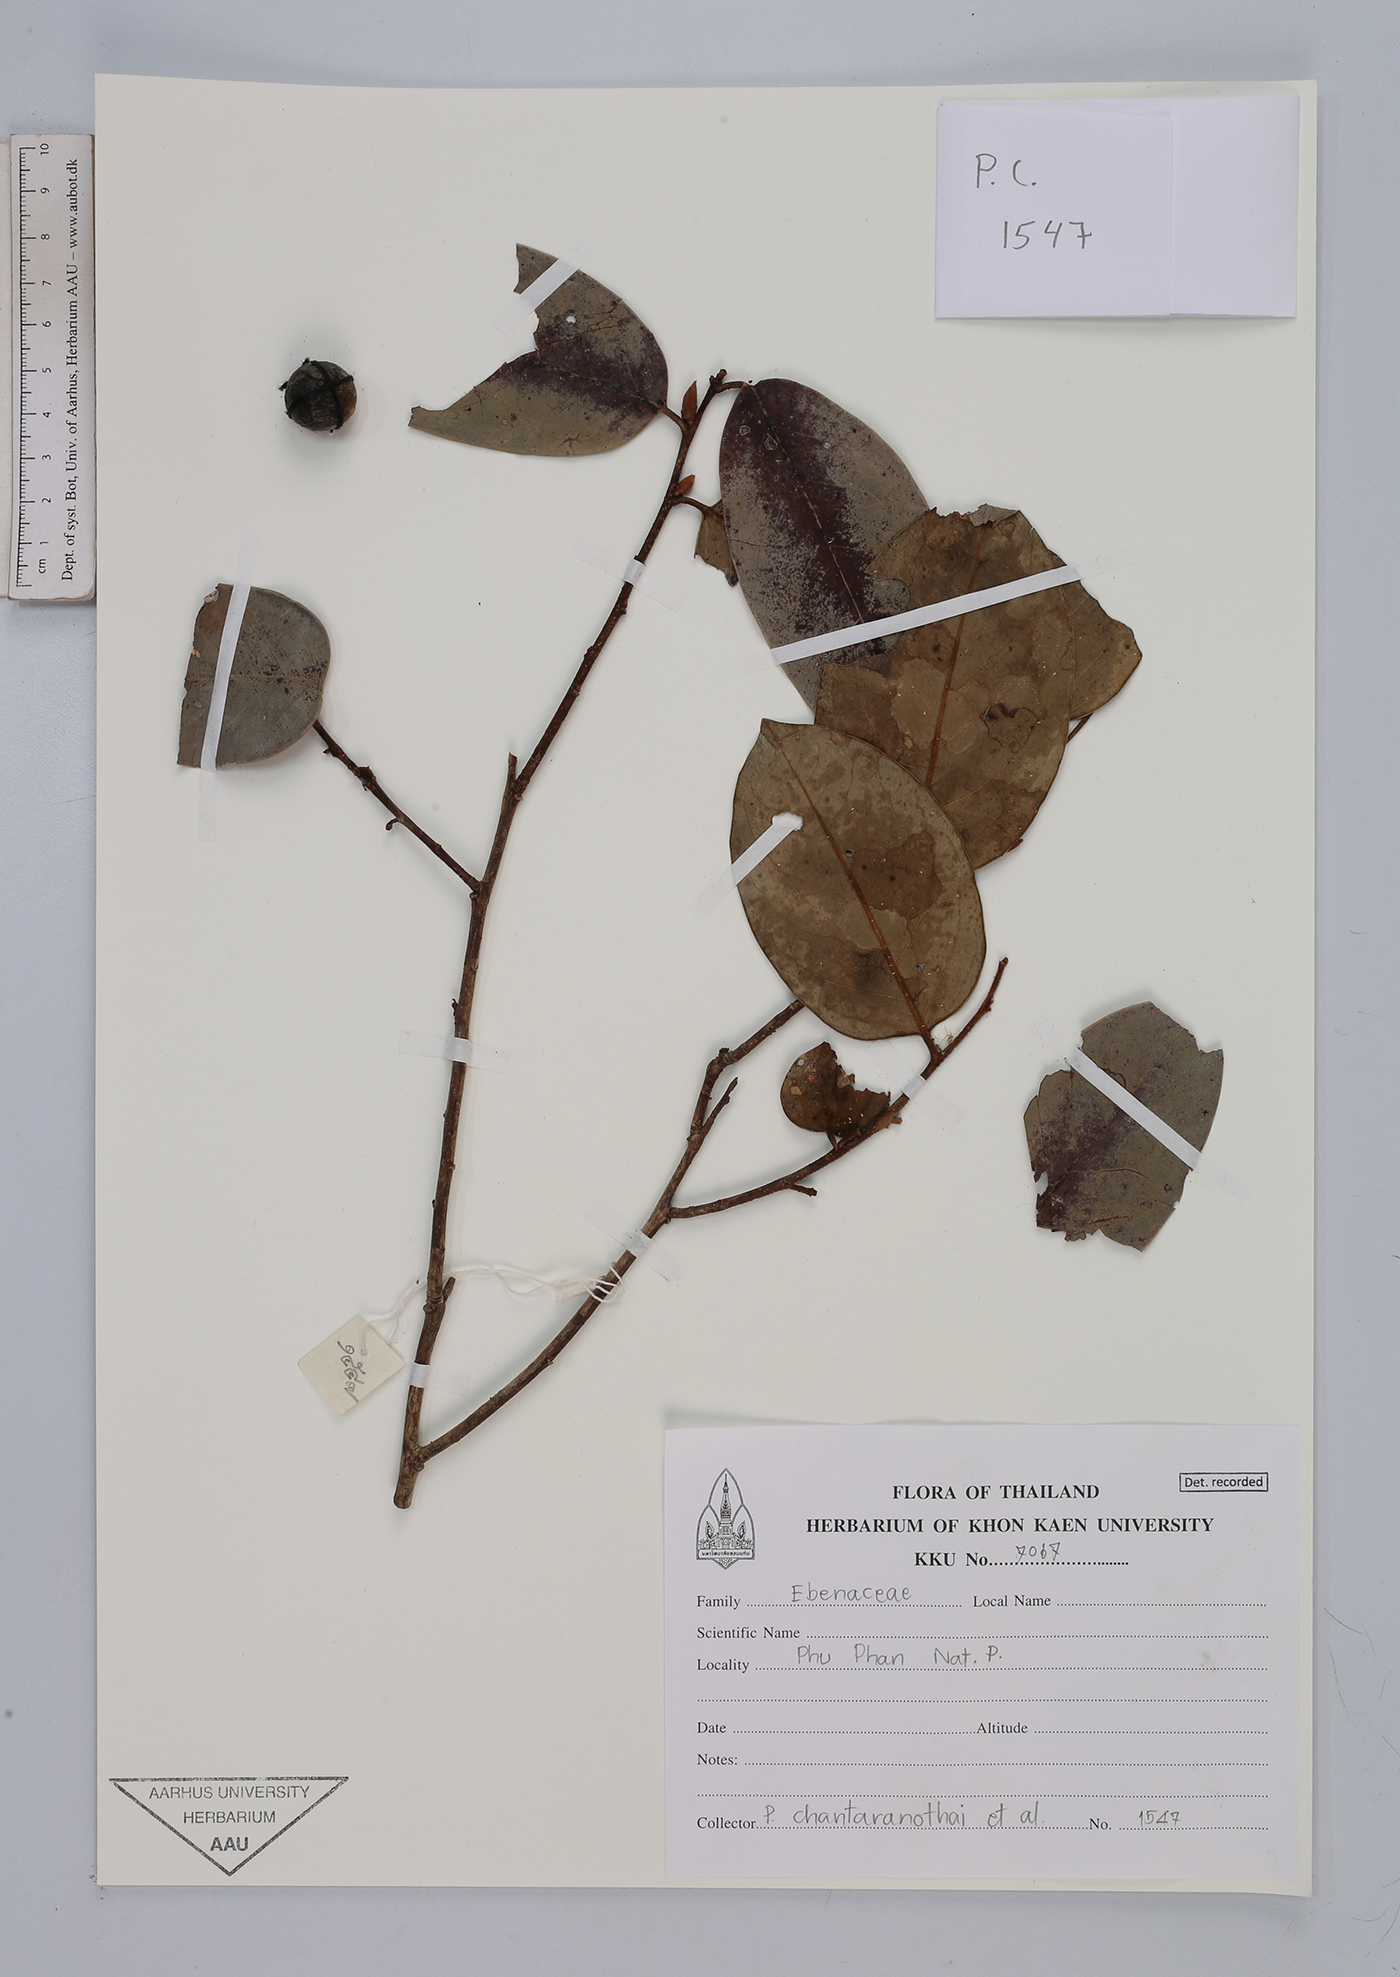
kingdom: Plantae
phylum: Tracheophyta
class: Magnoliopsida
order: Ericales
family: Ebenaceae
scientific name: Ebenaceae
